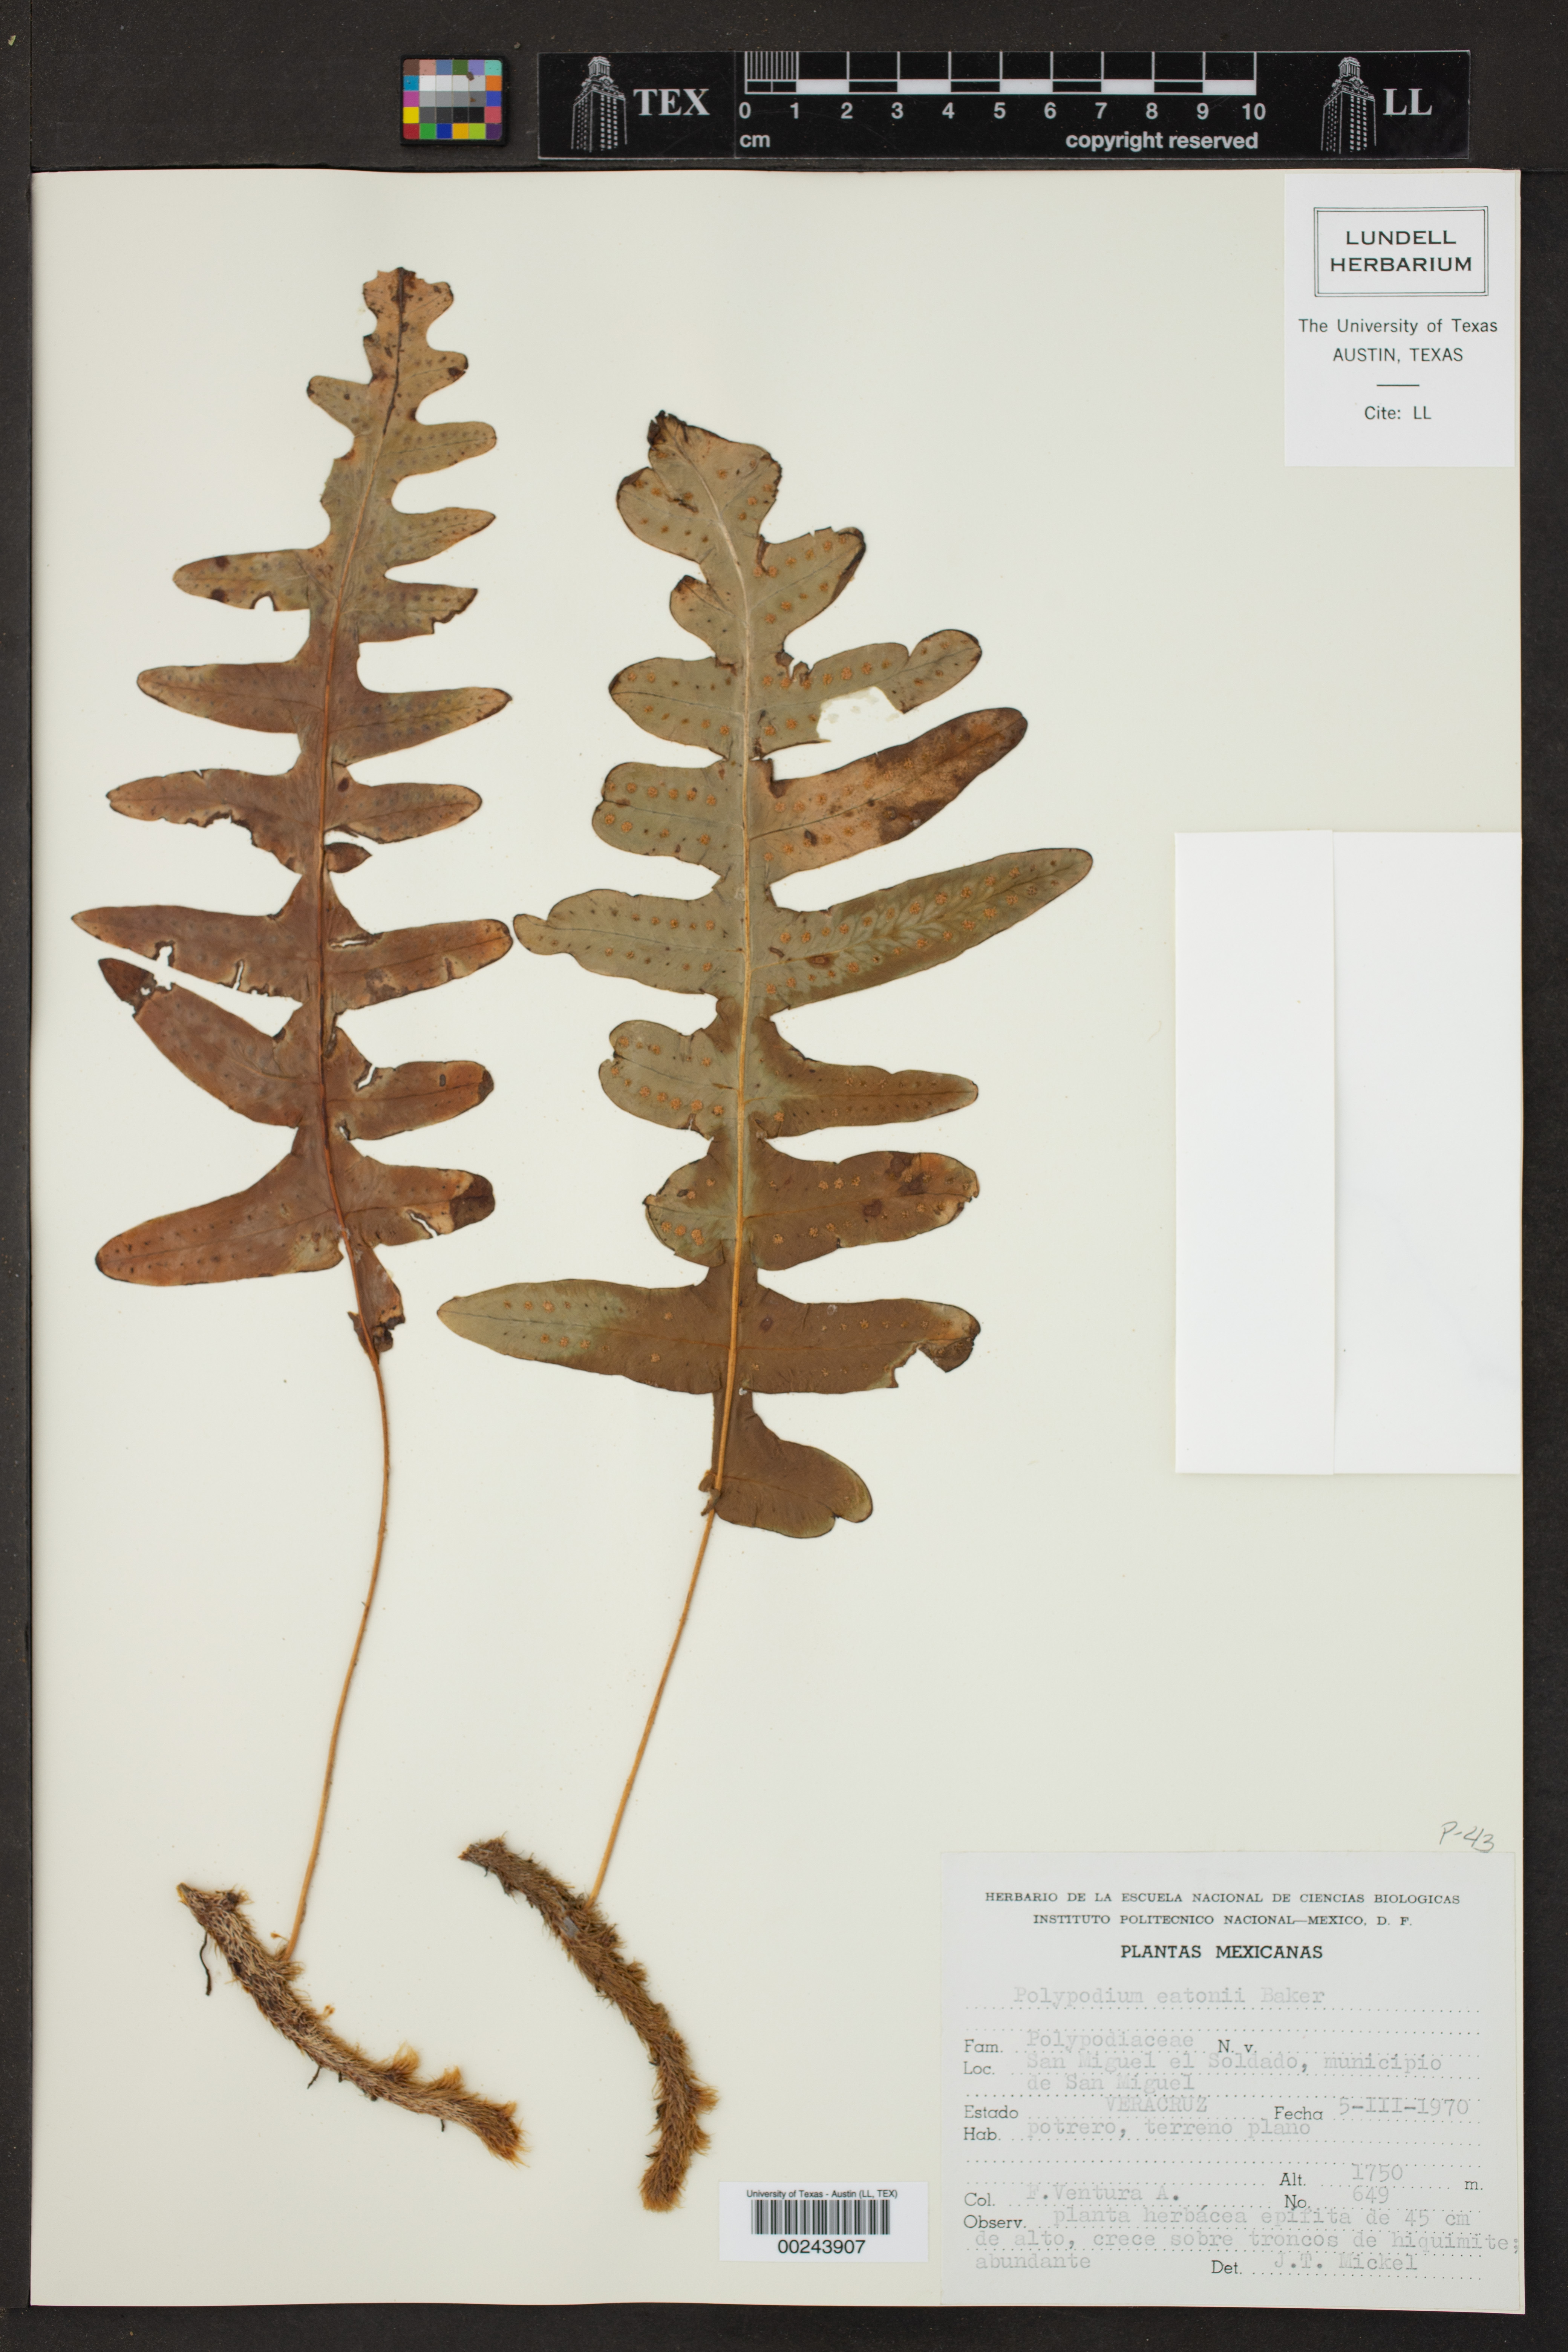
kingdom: Plantae
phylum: Tracheophyta
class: Polypodiopsida
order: Polypodiales
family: Polypodiaceae
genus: Polypodium
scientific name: Polypodium eatonii
